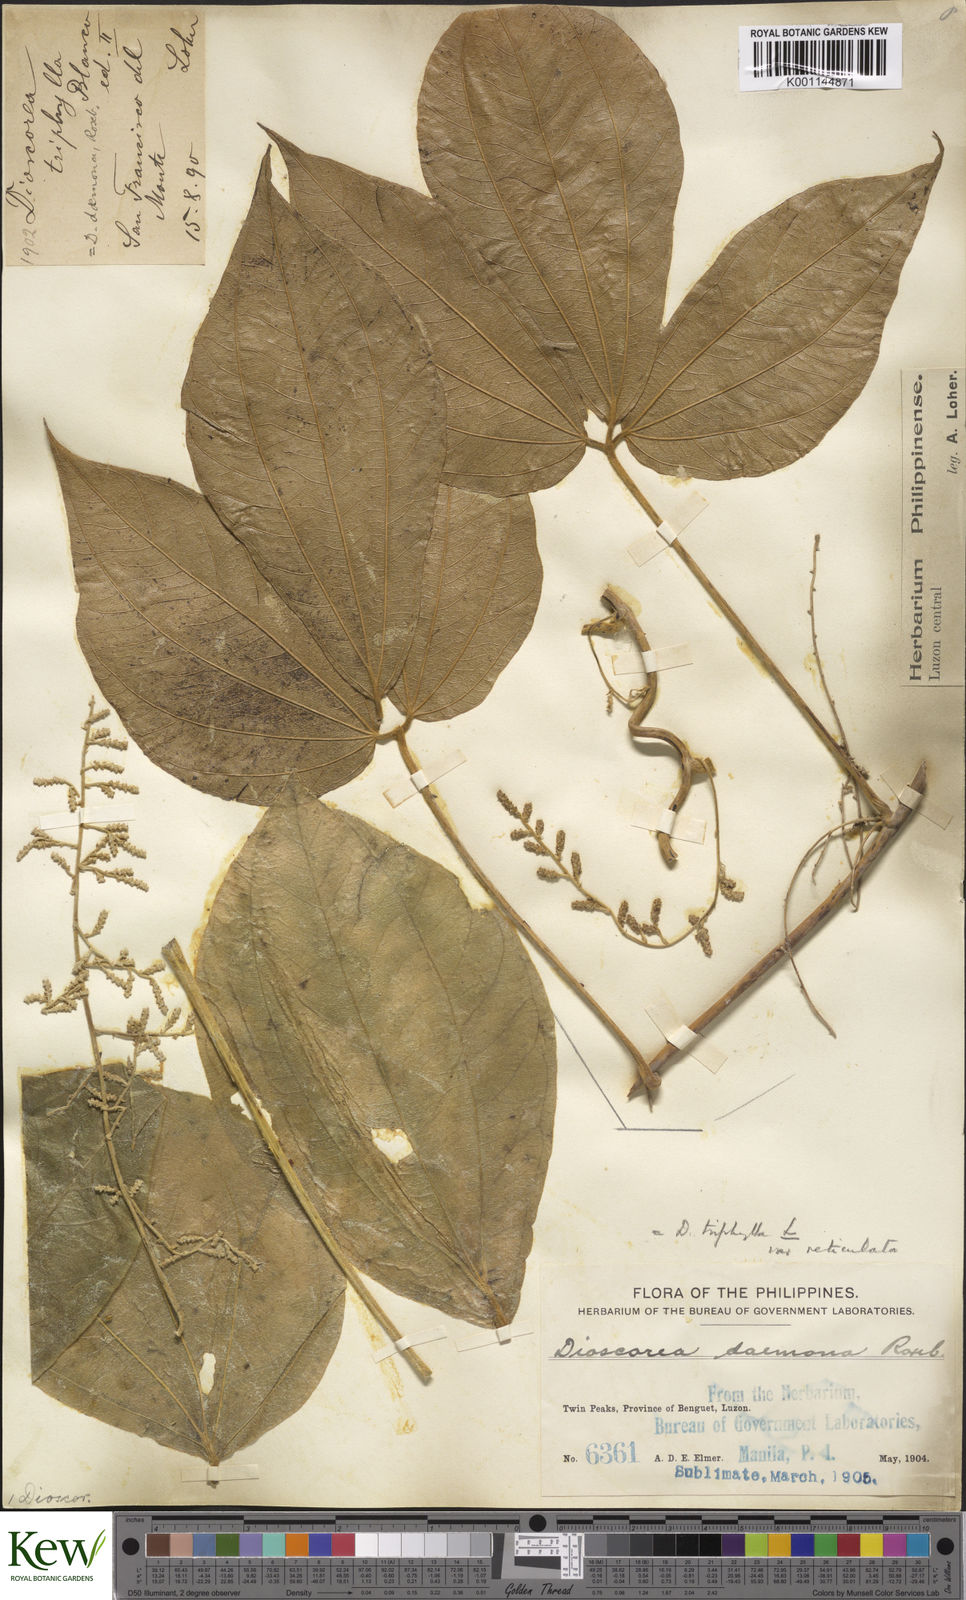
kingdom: Plantae
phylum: Tracheophyta
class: Liliopsida
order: Dioscoreales
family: Dioscoreaceae
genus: Dioscorea
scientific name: Dioscorea hispida
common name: Asiatic bitter yam
